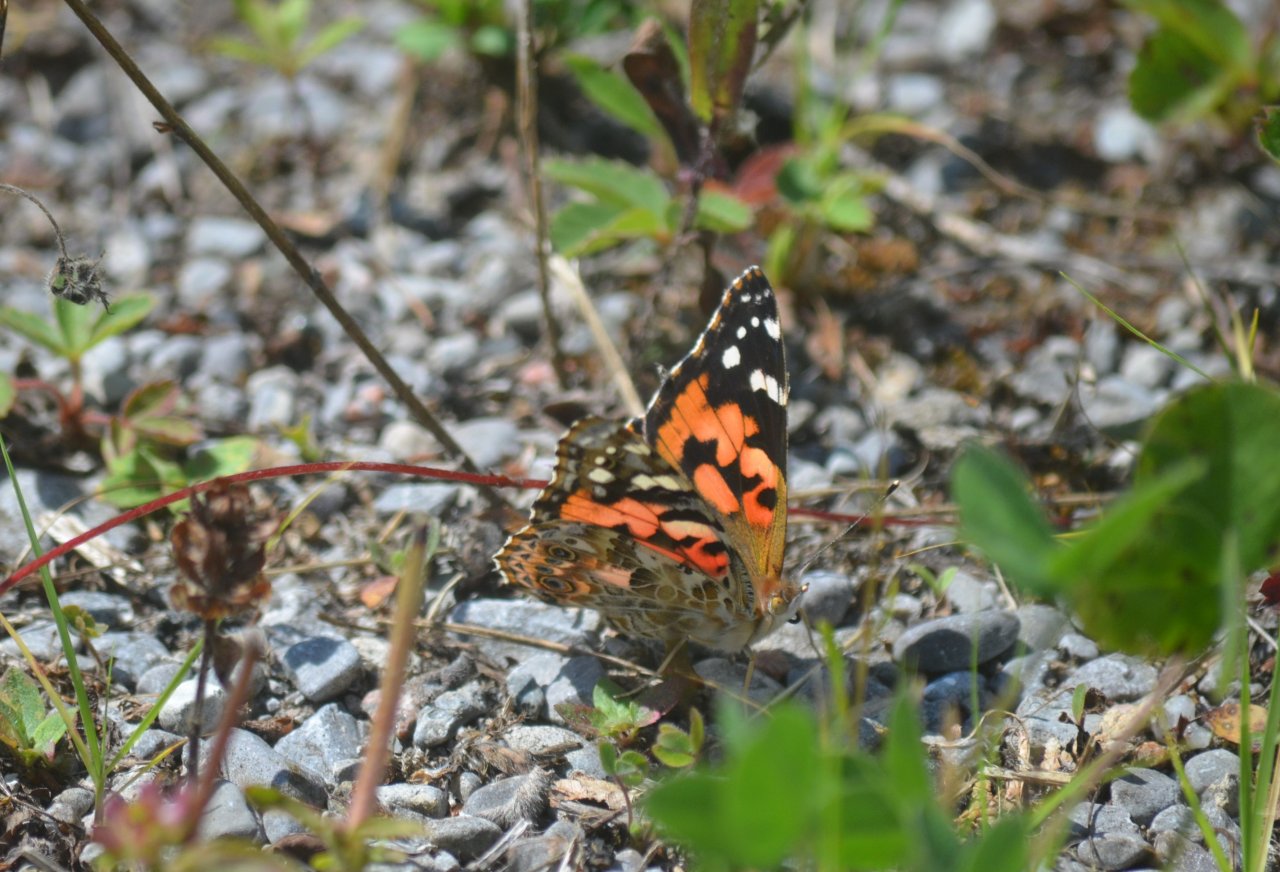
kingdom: Animalia
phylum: Arthropoda
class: Insecta
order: Lepidoptera
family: Nymphalidae
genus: Vanessa
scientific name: Vanessa cardui
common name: Painted Lady
